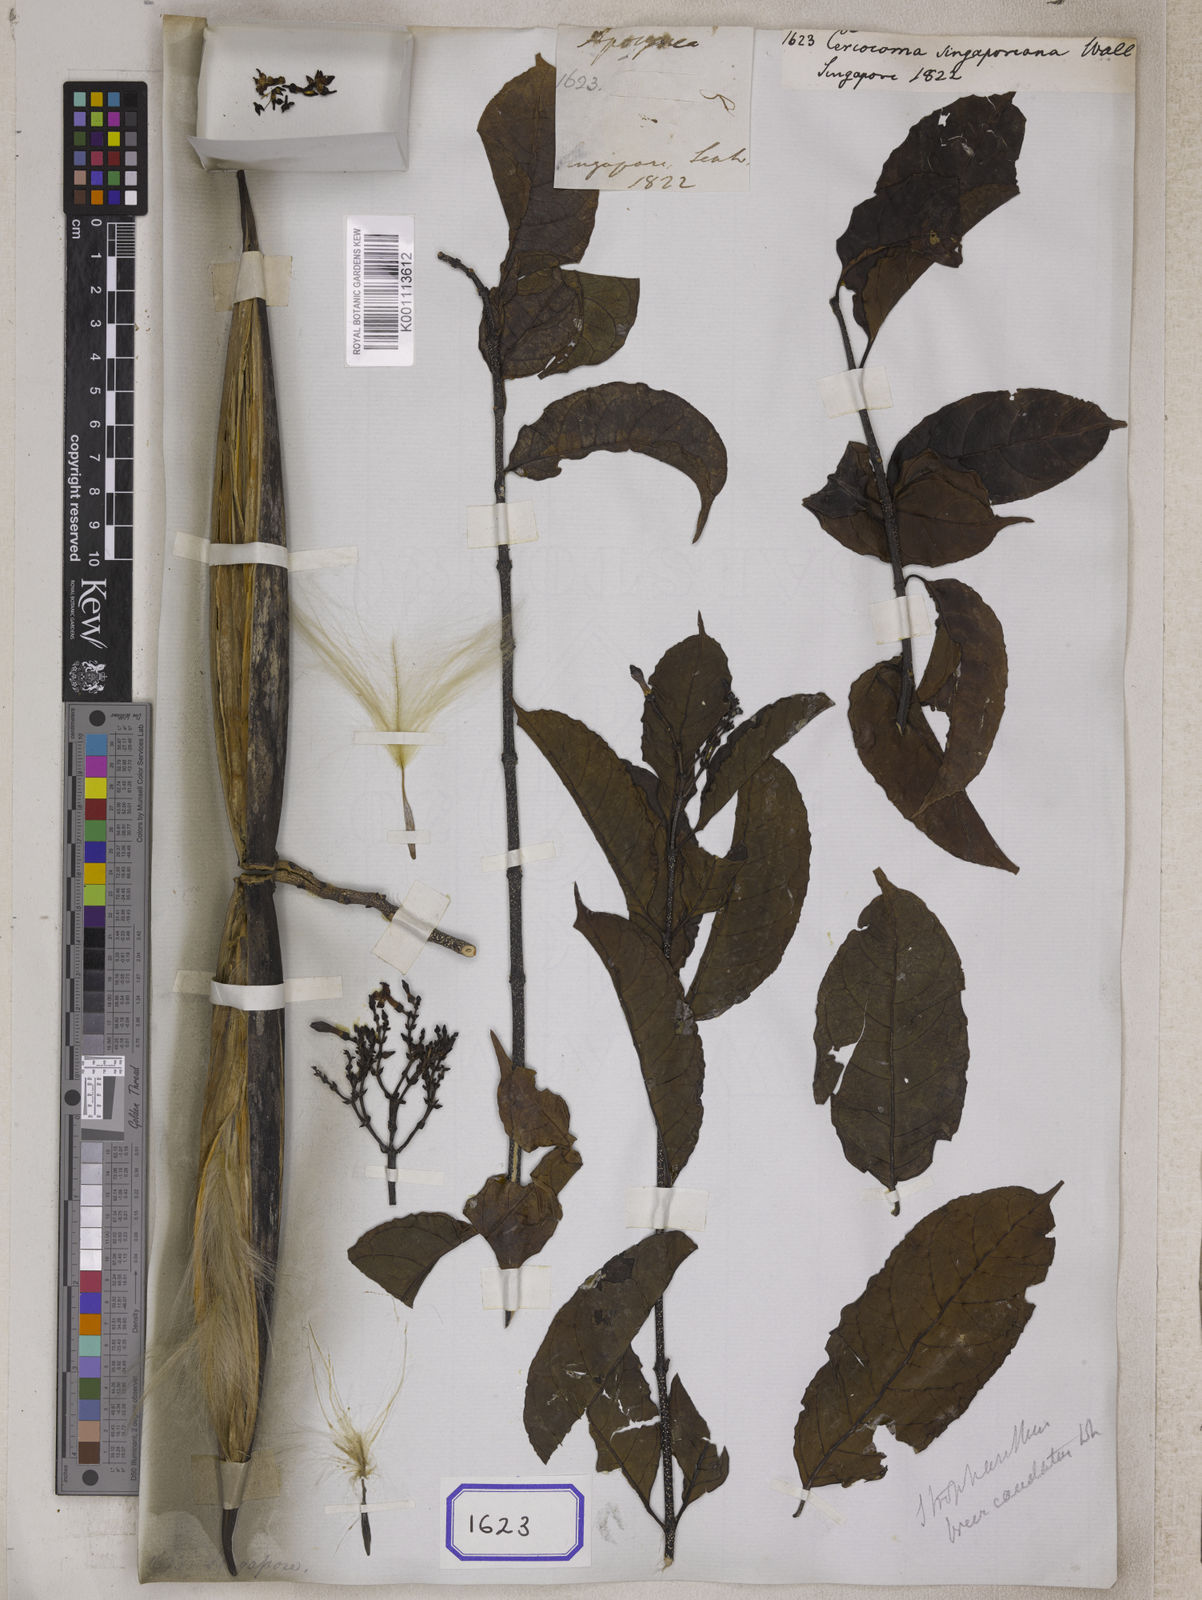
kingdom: Plantae
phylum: Tracheophyta
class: Magnoliopsida
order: Gentianales
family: Apocynaceae
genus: Cercocoma
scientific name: Cercocoma
